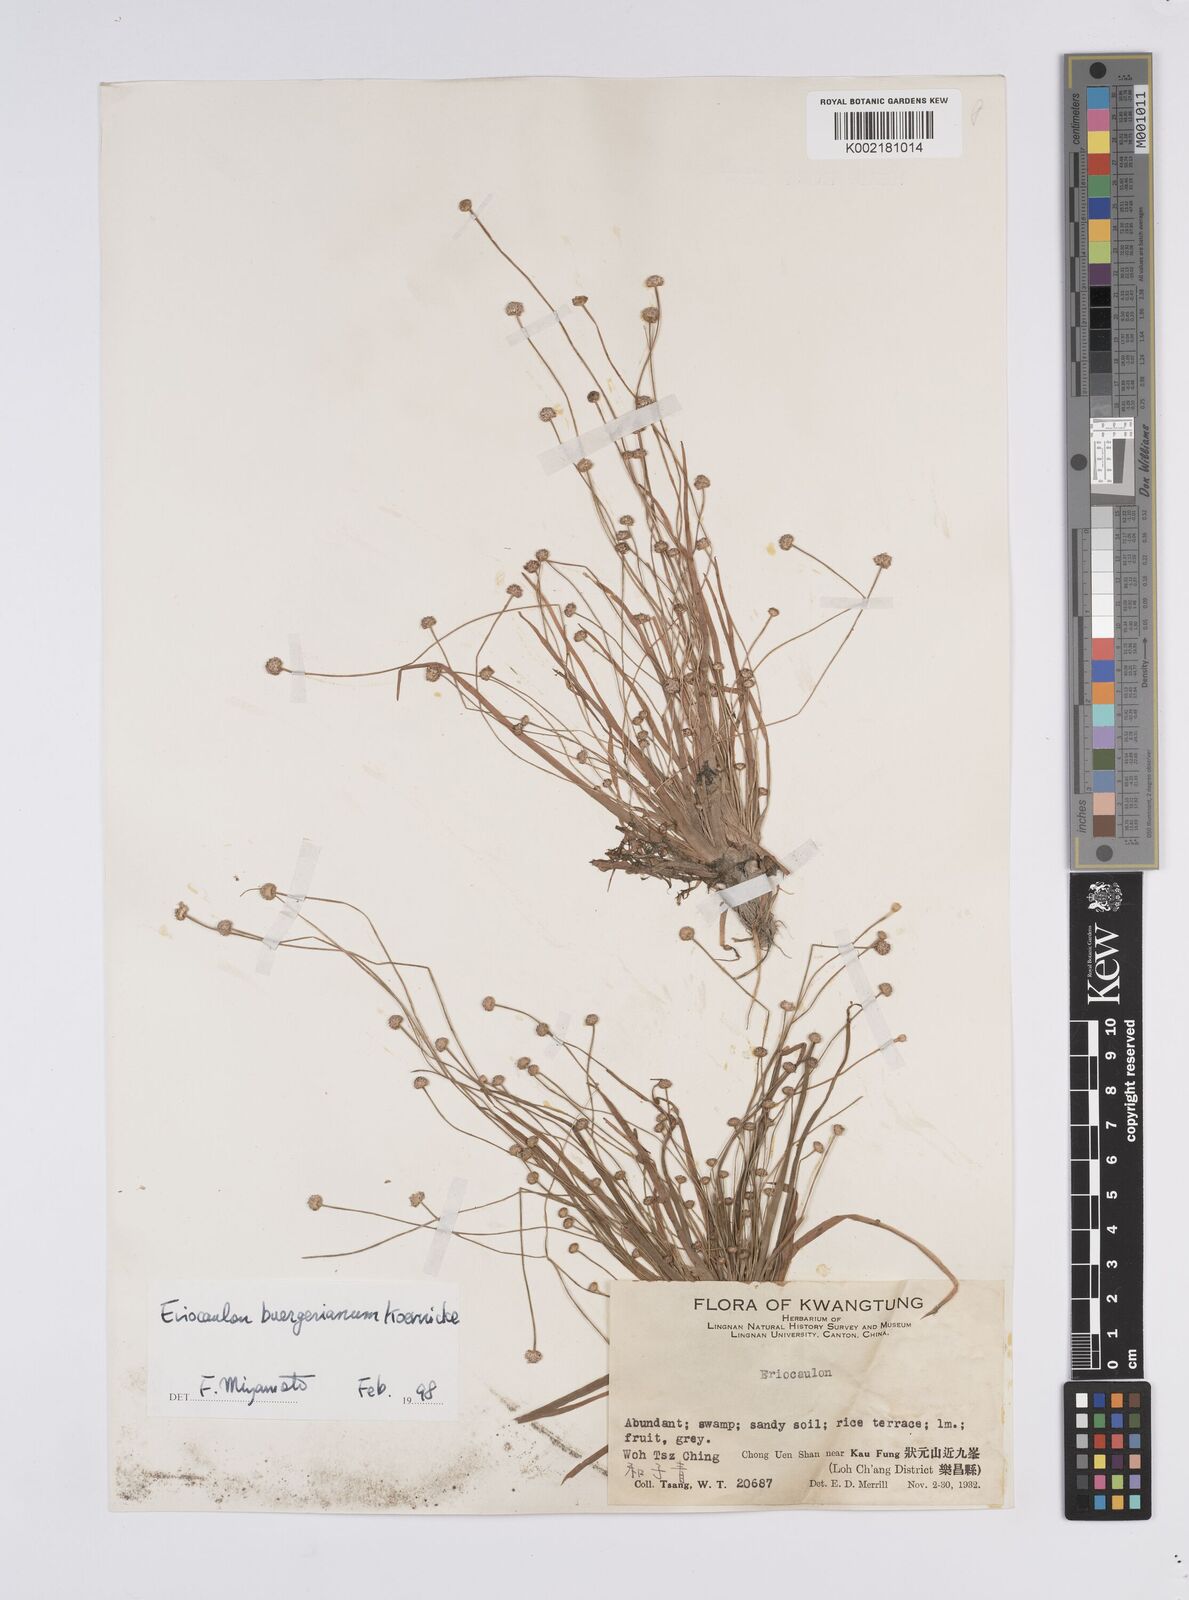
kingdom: Plantae
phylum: Tracheophyta
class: Liliopsida
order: Poales
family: Eriocaulaceae
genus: Eriocaulon
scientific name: Eriocaulon buergerianum
